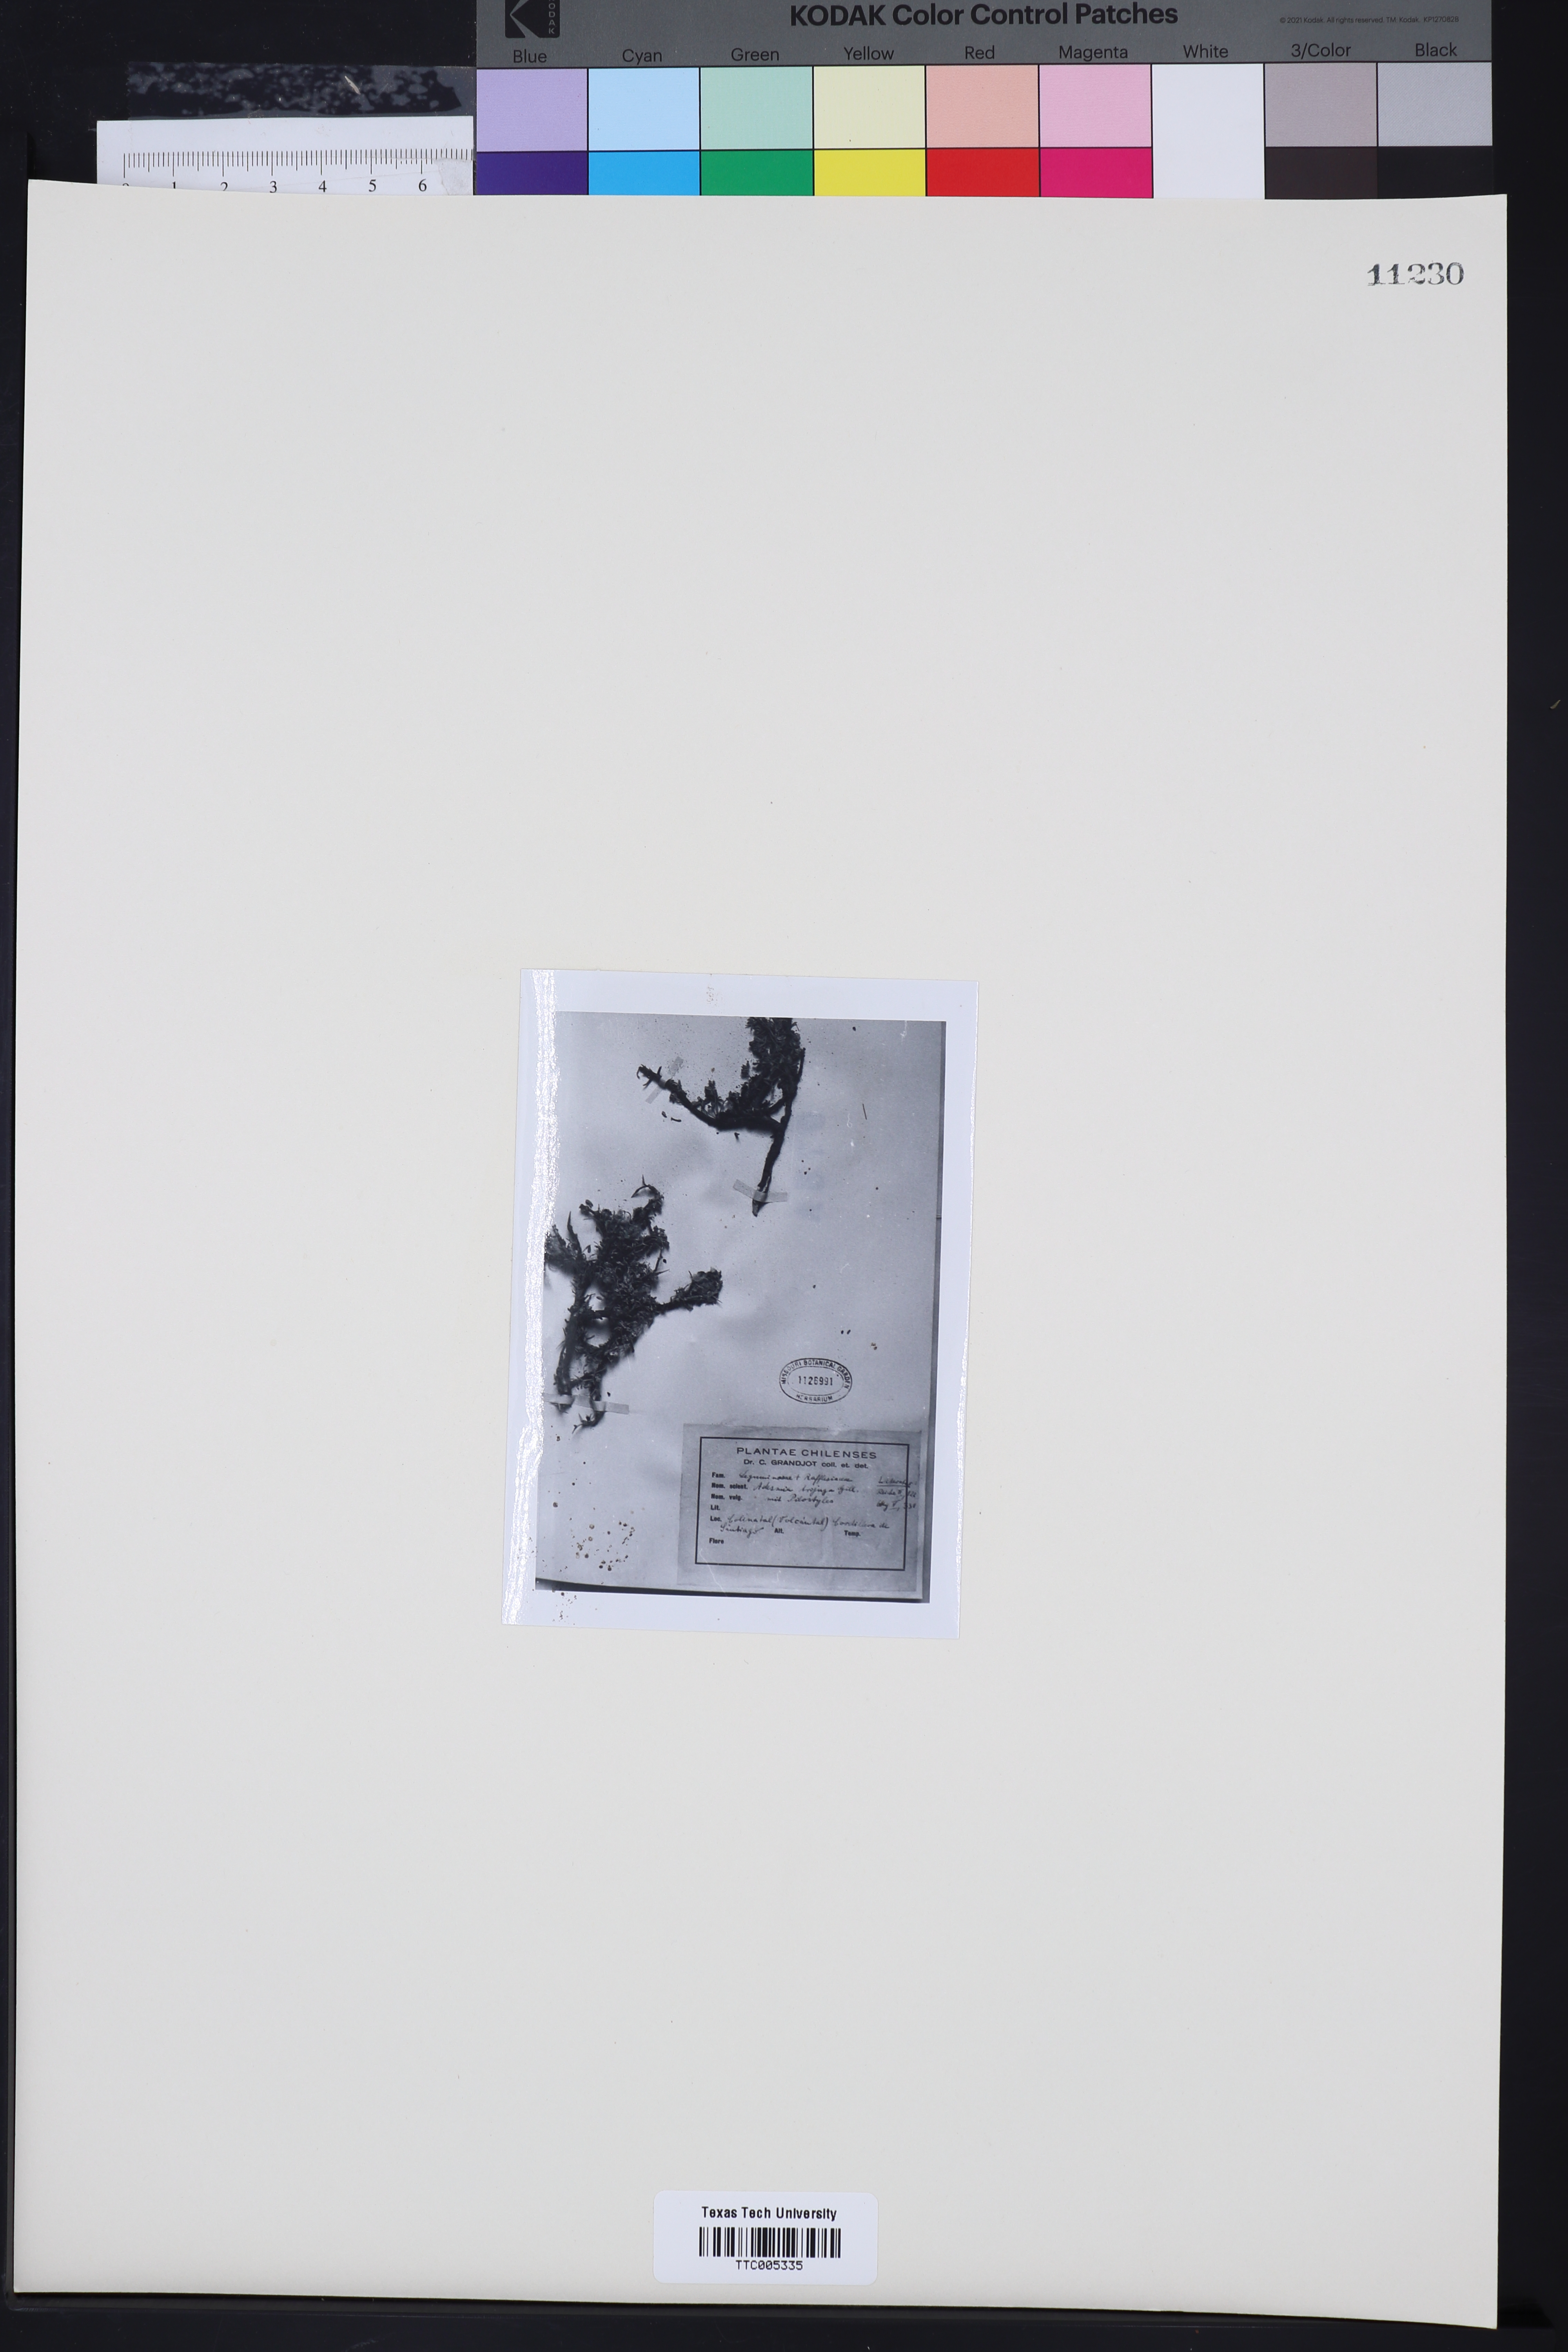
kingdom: Plantae
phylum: Tracheophyta
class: Magnoliopsida
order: Fabales
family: Fabaceae
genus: Adesmia
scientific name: Adesmia bijuga
